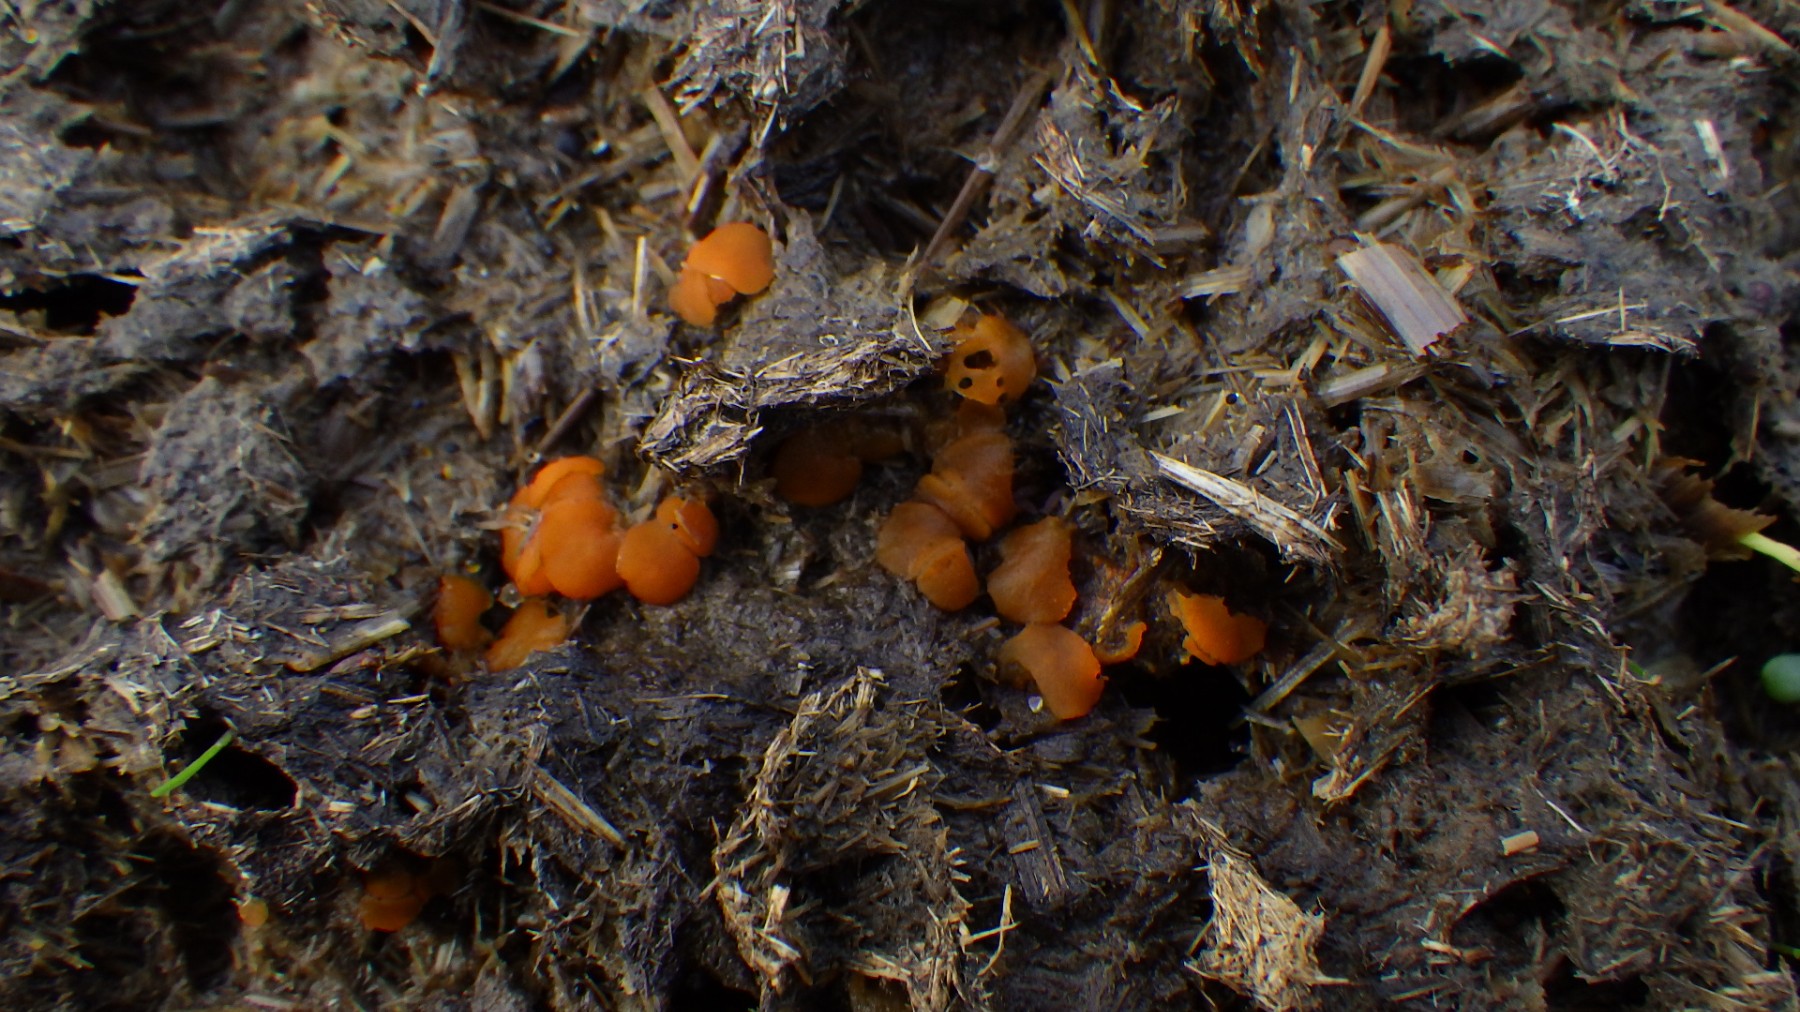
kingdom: Fungi
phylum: Ascomycota
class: Pezizomycetes
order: Pezizales
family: Pyronemataceae
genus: Cheilymenia
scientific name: Cheilymenia granulata
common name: møgbæger
